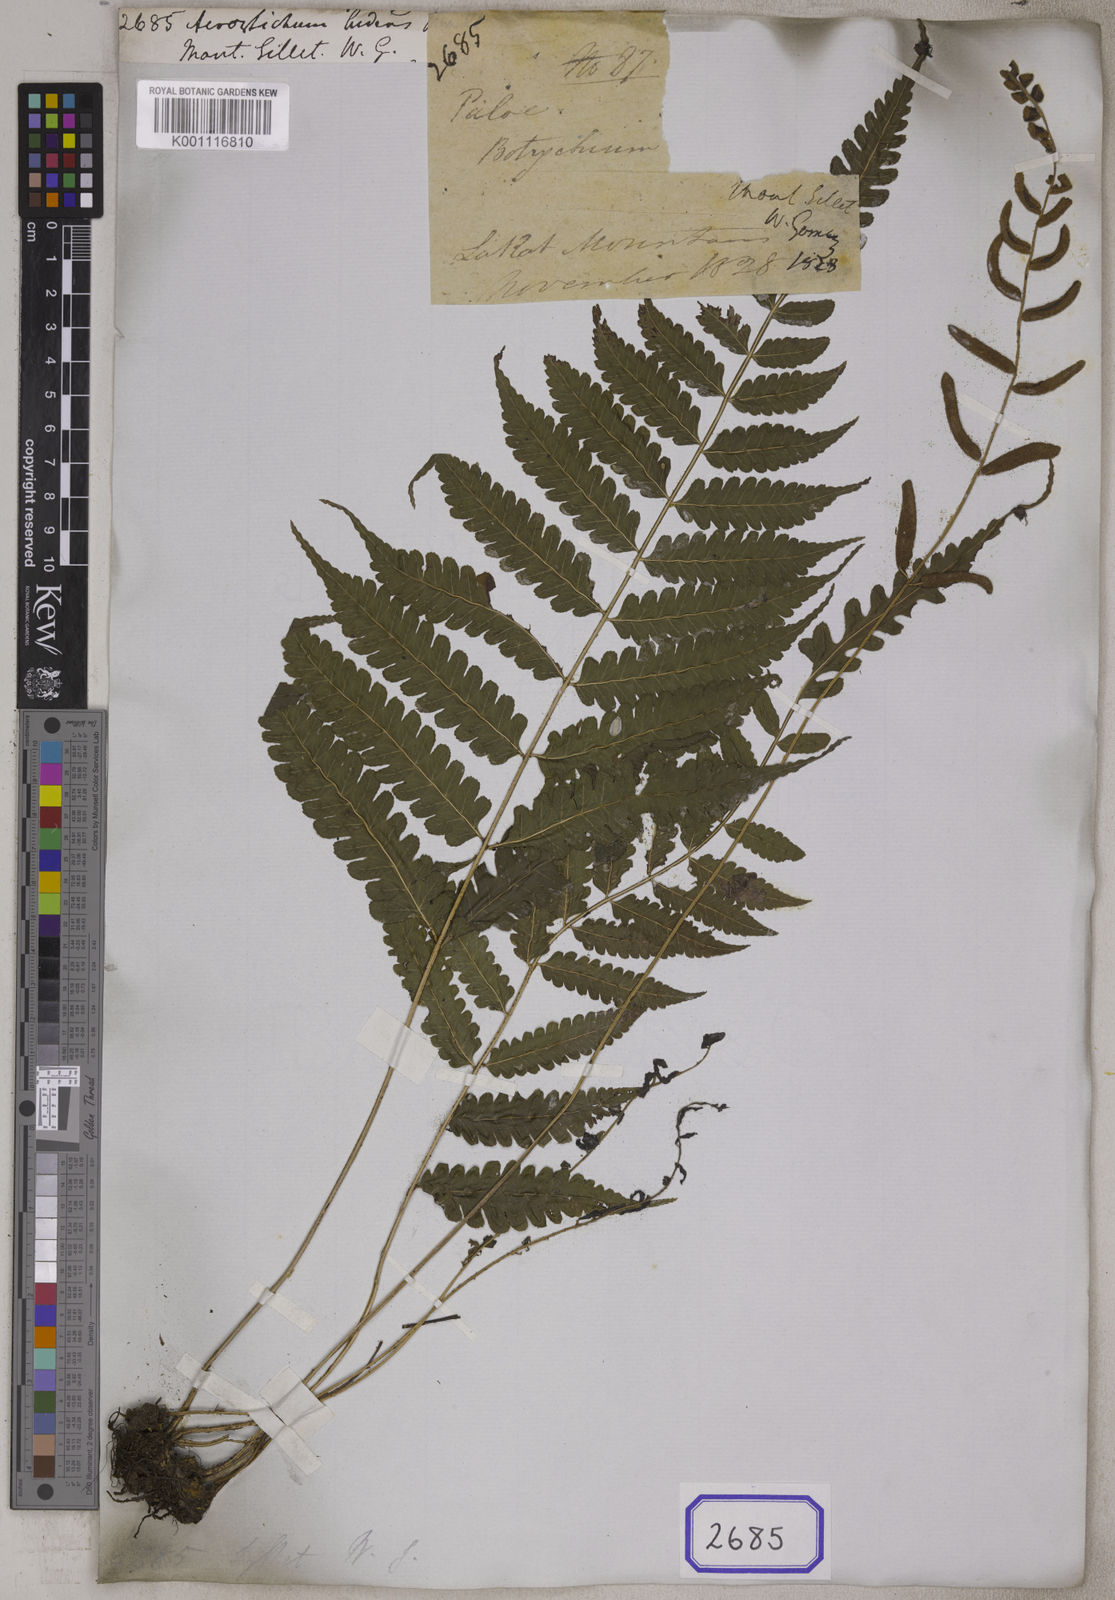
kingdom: Plantae
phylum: Tracheophyta
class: Polypodiopsida
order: Polypodiales
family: Dryopteridaceae
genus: Bolbitis
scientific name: Bolbitis sinensis
